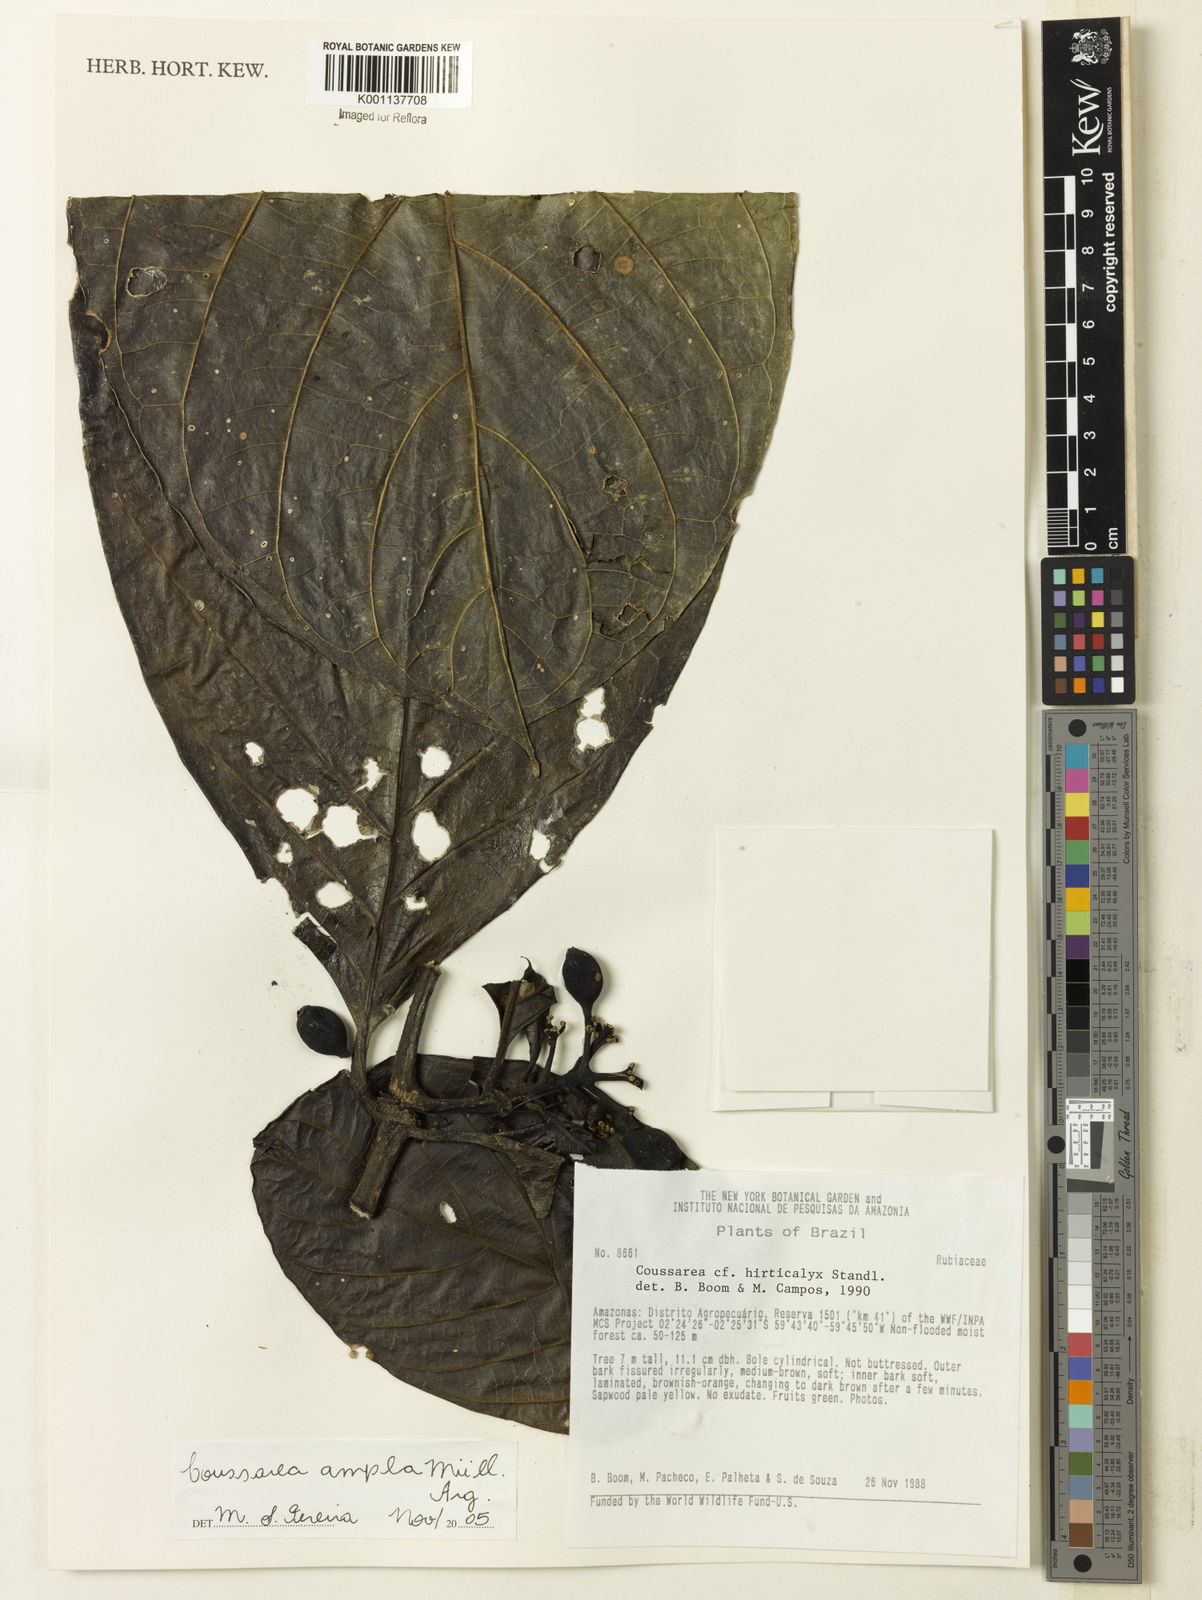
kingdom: Plantae
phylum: Tracheophyta
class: Magnoliopsida
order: Gentianales
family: Rubiaceae
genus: Coussarea
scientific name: Coussarea
